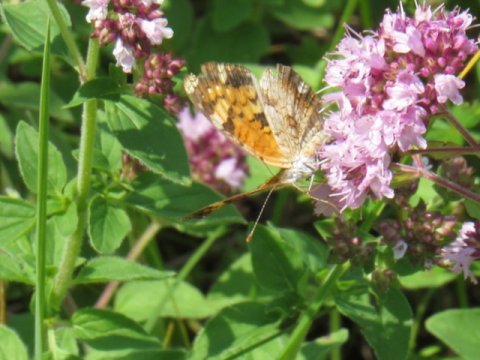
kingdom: Animalia
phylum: Arthropoda
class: Insecta
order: Lepidoptera
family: Nymphalidae
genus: Phyciodes
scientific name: Phyciodes tharos
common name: Pearl Crescent
